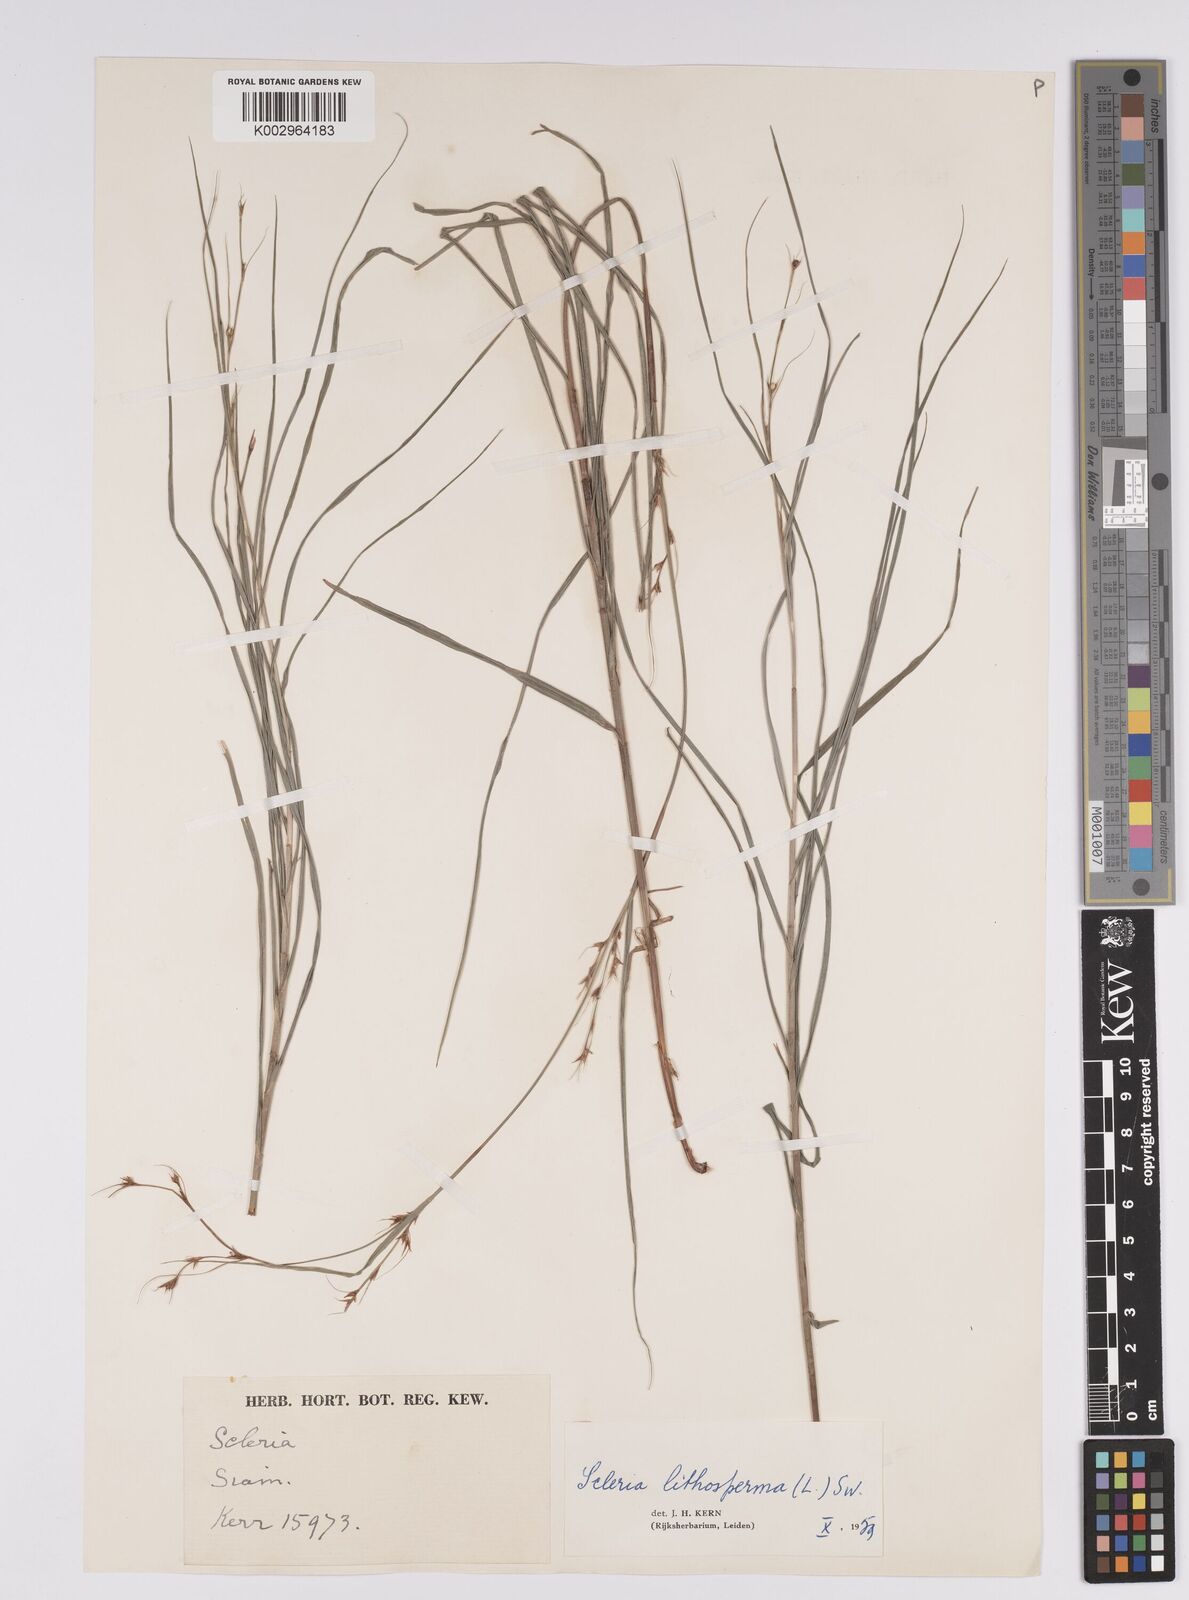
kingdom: Plantae
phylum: Tracheophyta
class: Liliopsida
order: Poales
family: Cyperaceae
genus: Scleria
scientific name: Scleria lithosperma
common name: Florida keys nut-rush
